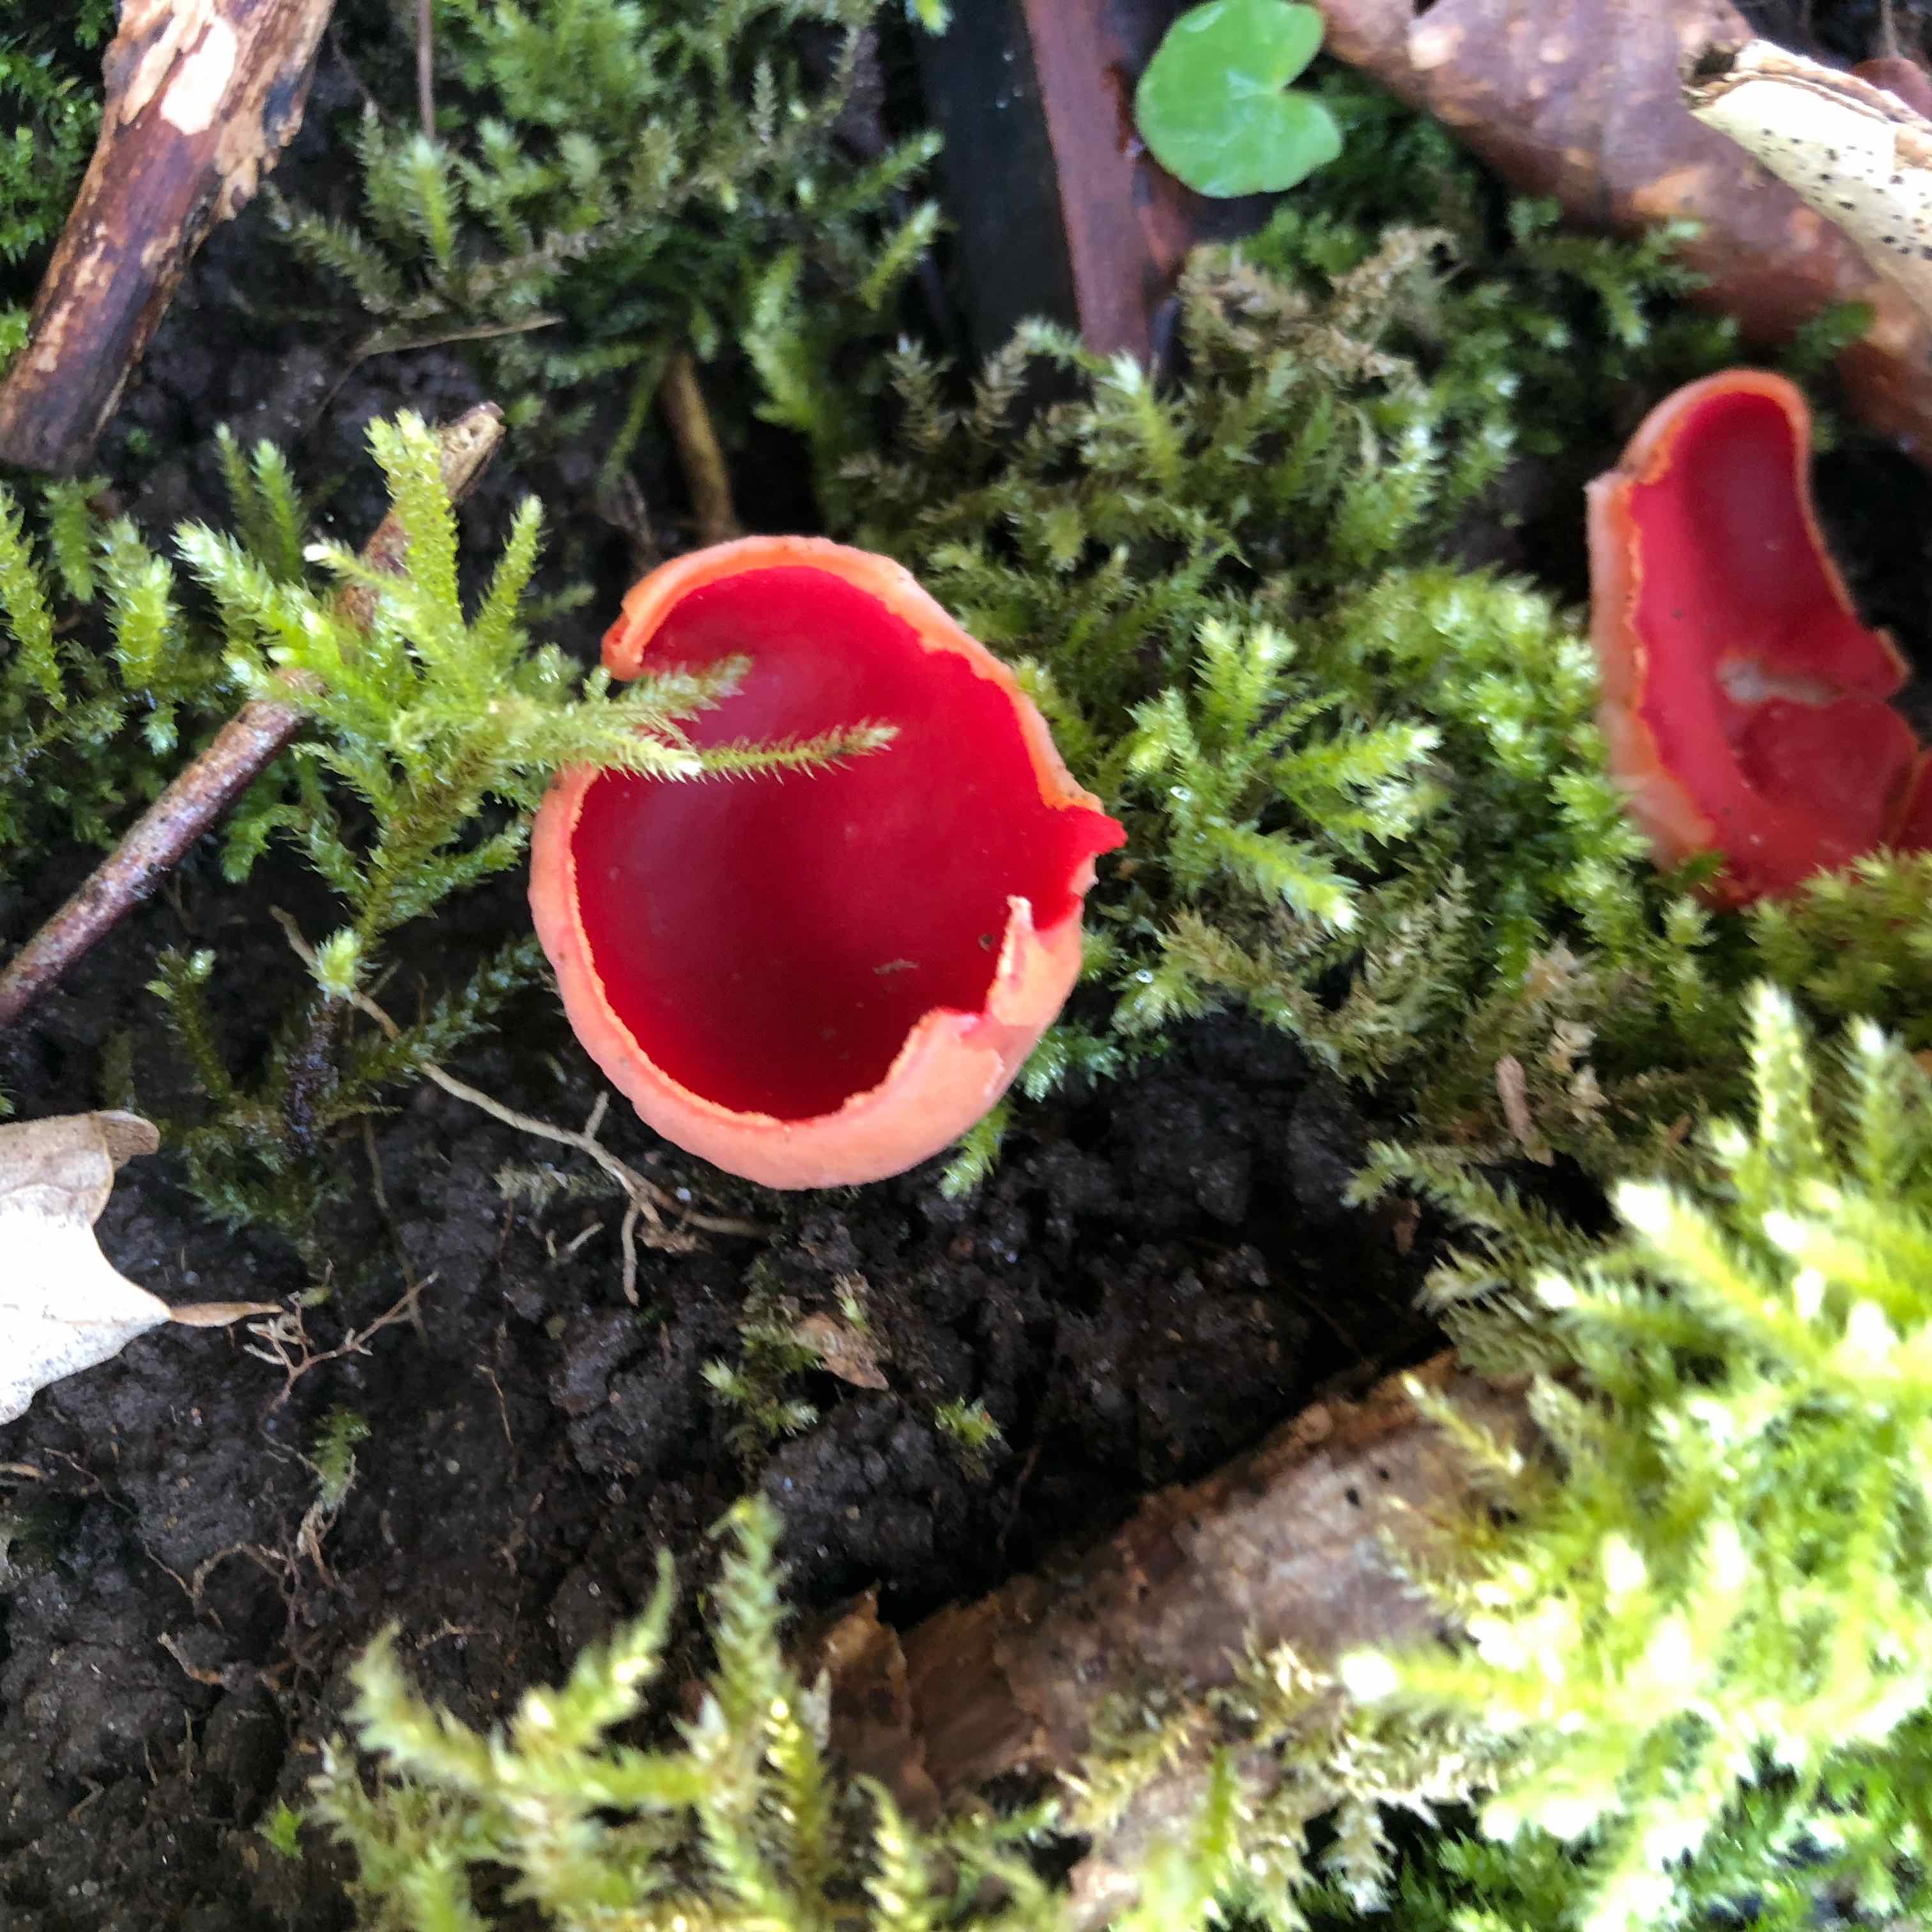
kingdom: Fungi
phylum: Ascomycota
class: Pezizomycetes
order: Pezizales
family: Sarcoscyphaceae
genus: Sarcoscypha
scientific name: Sarcoscypha austriaca
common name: krølhåret pragtbæger
